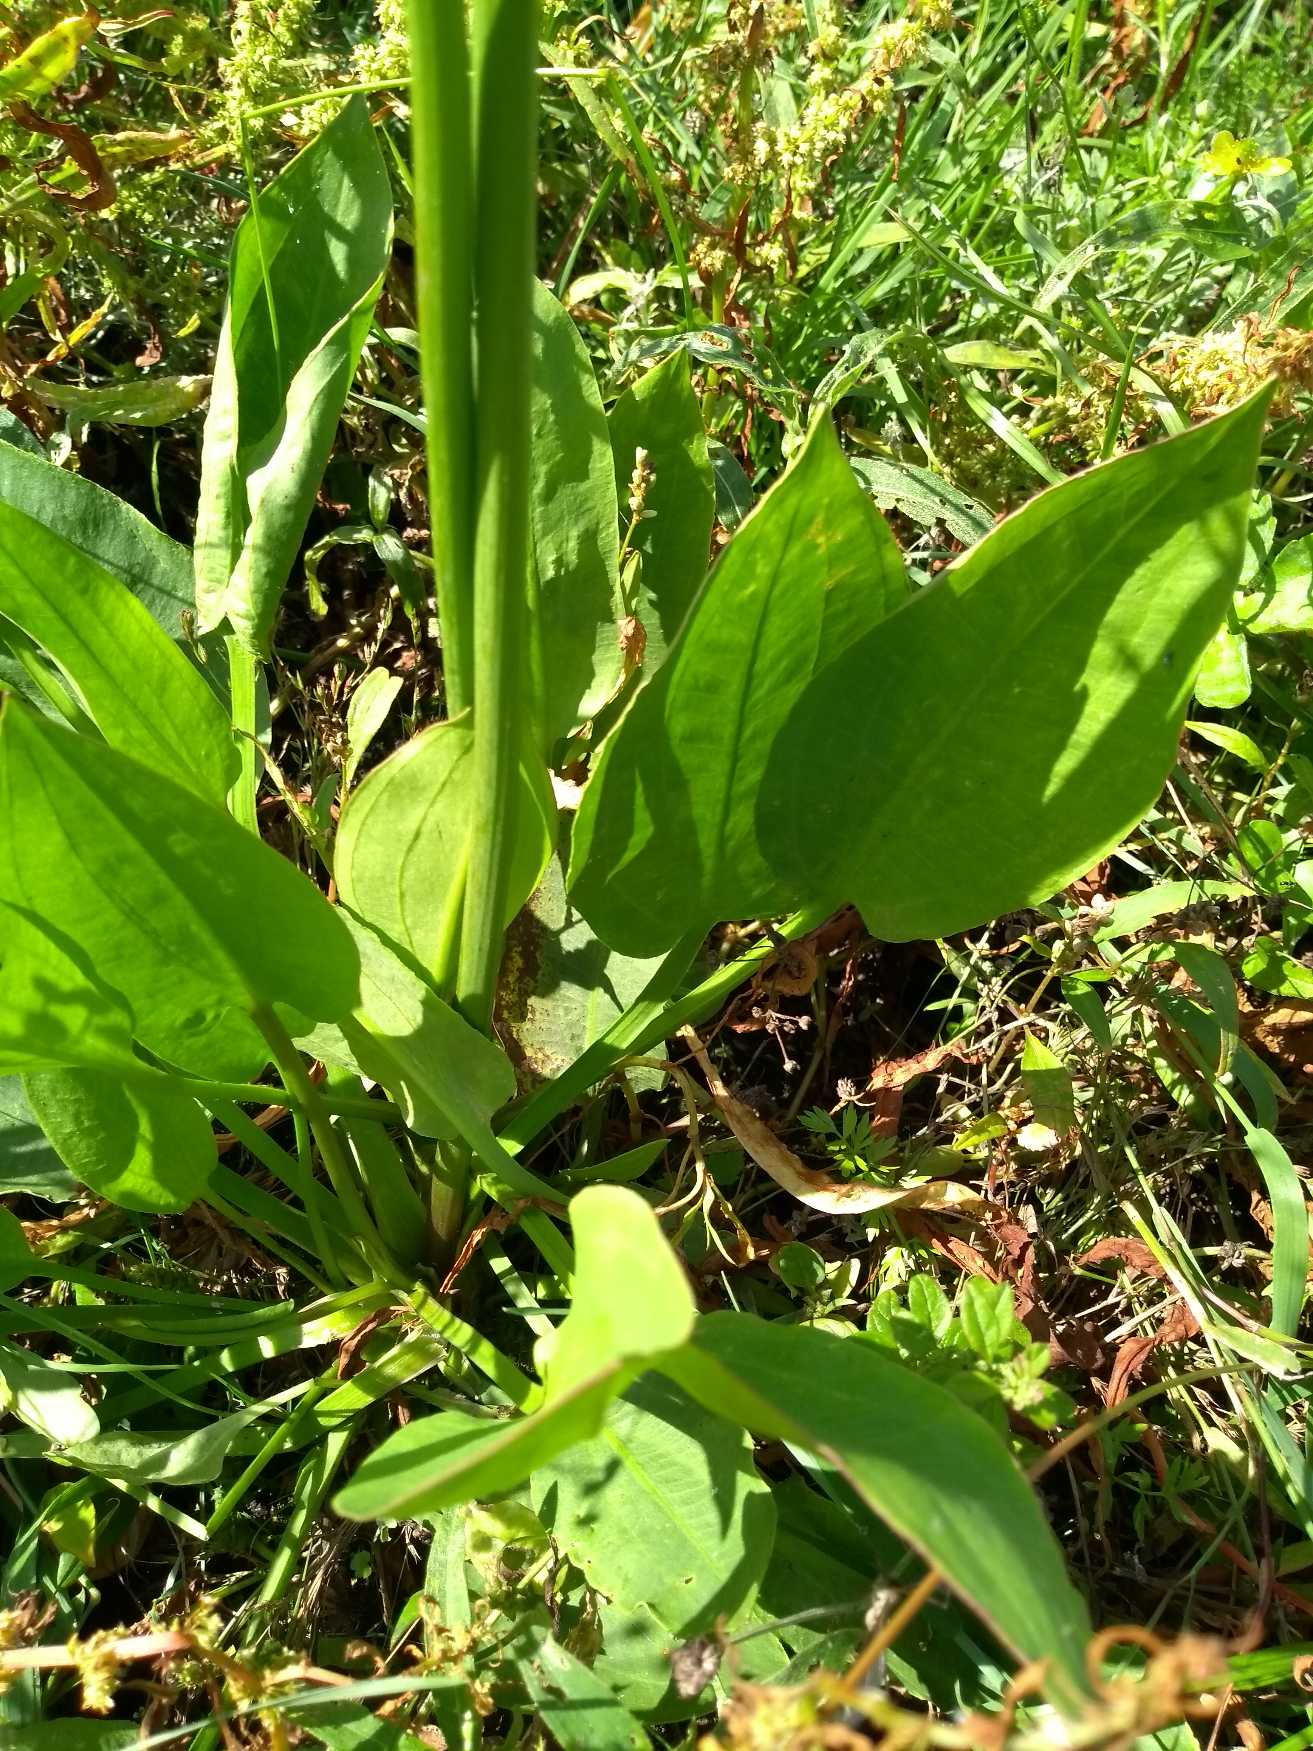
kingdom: Plantae
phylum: Tracheophyta
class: Liliopsida
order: Alismatales
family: Alismataceae
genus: Alisma
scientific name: Alisma plantago-aquatica
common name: Vejbred-skeblad
